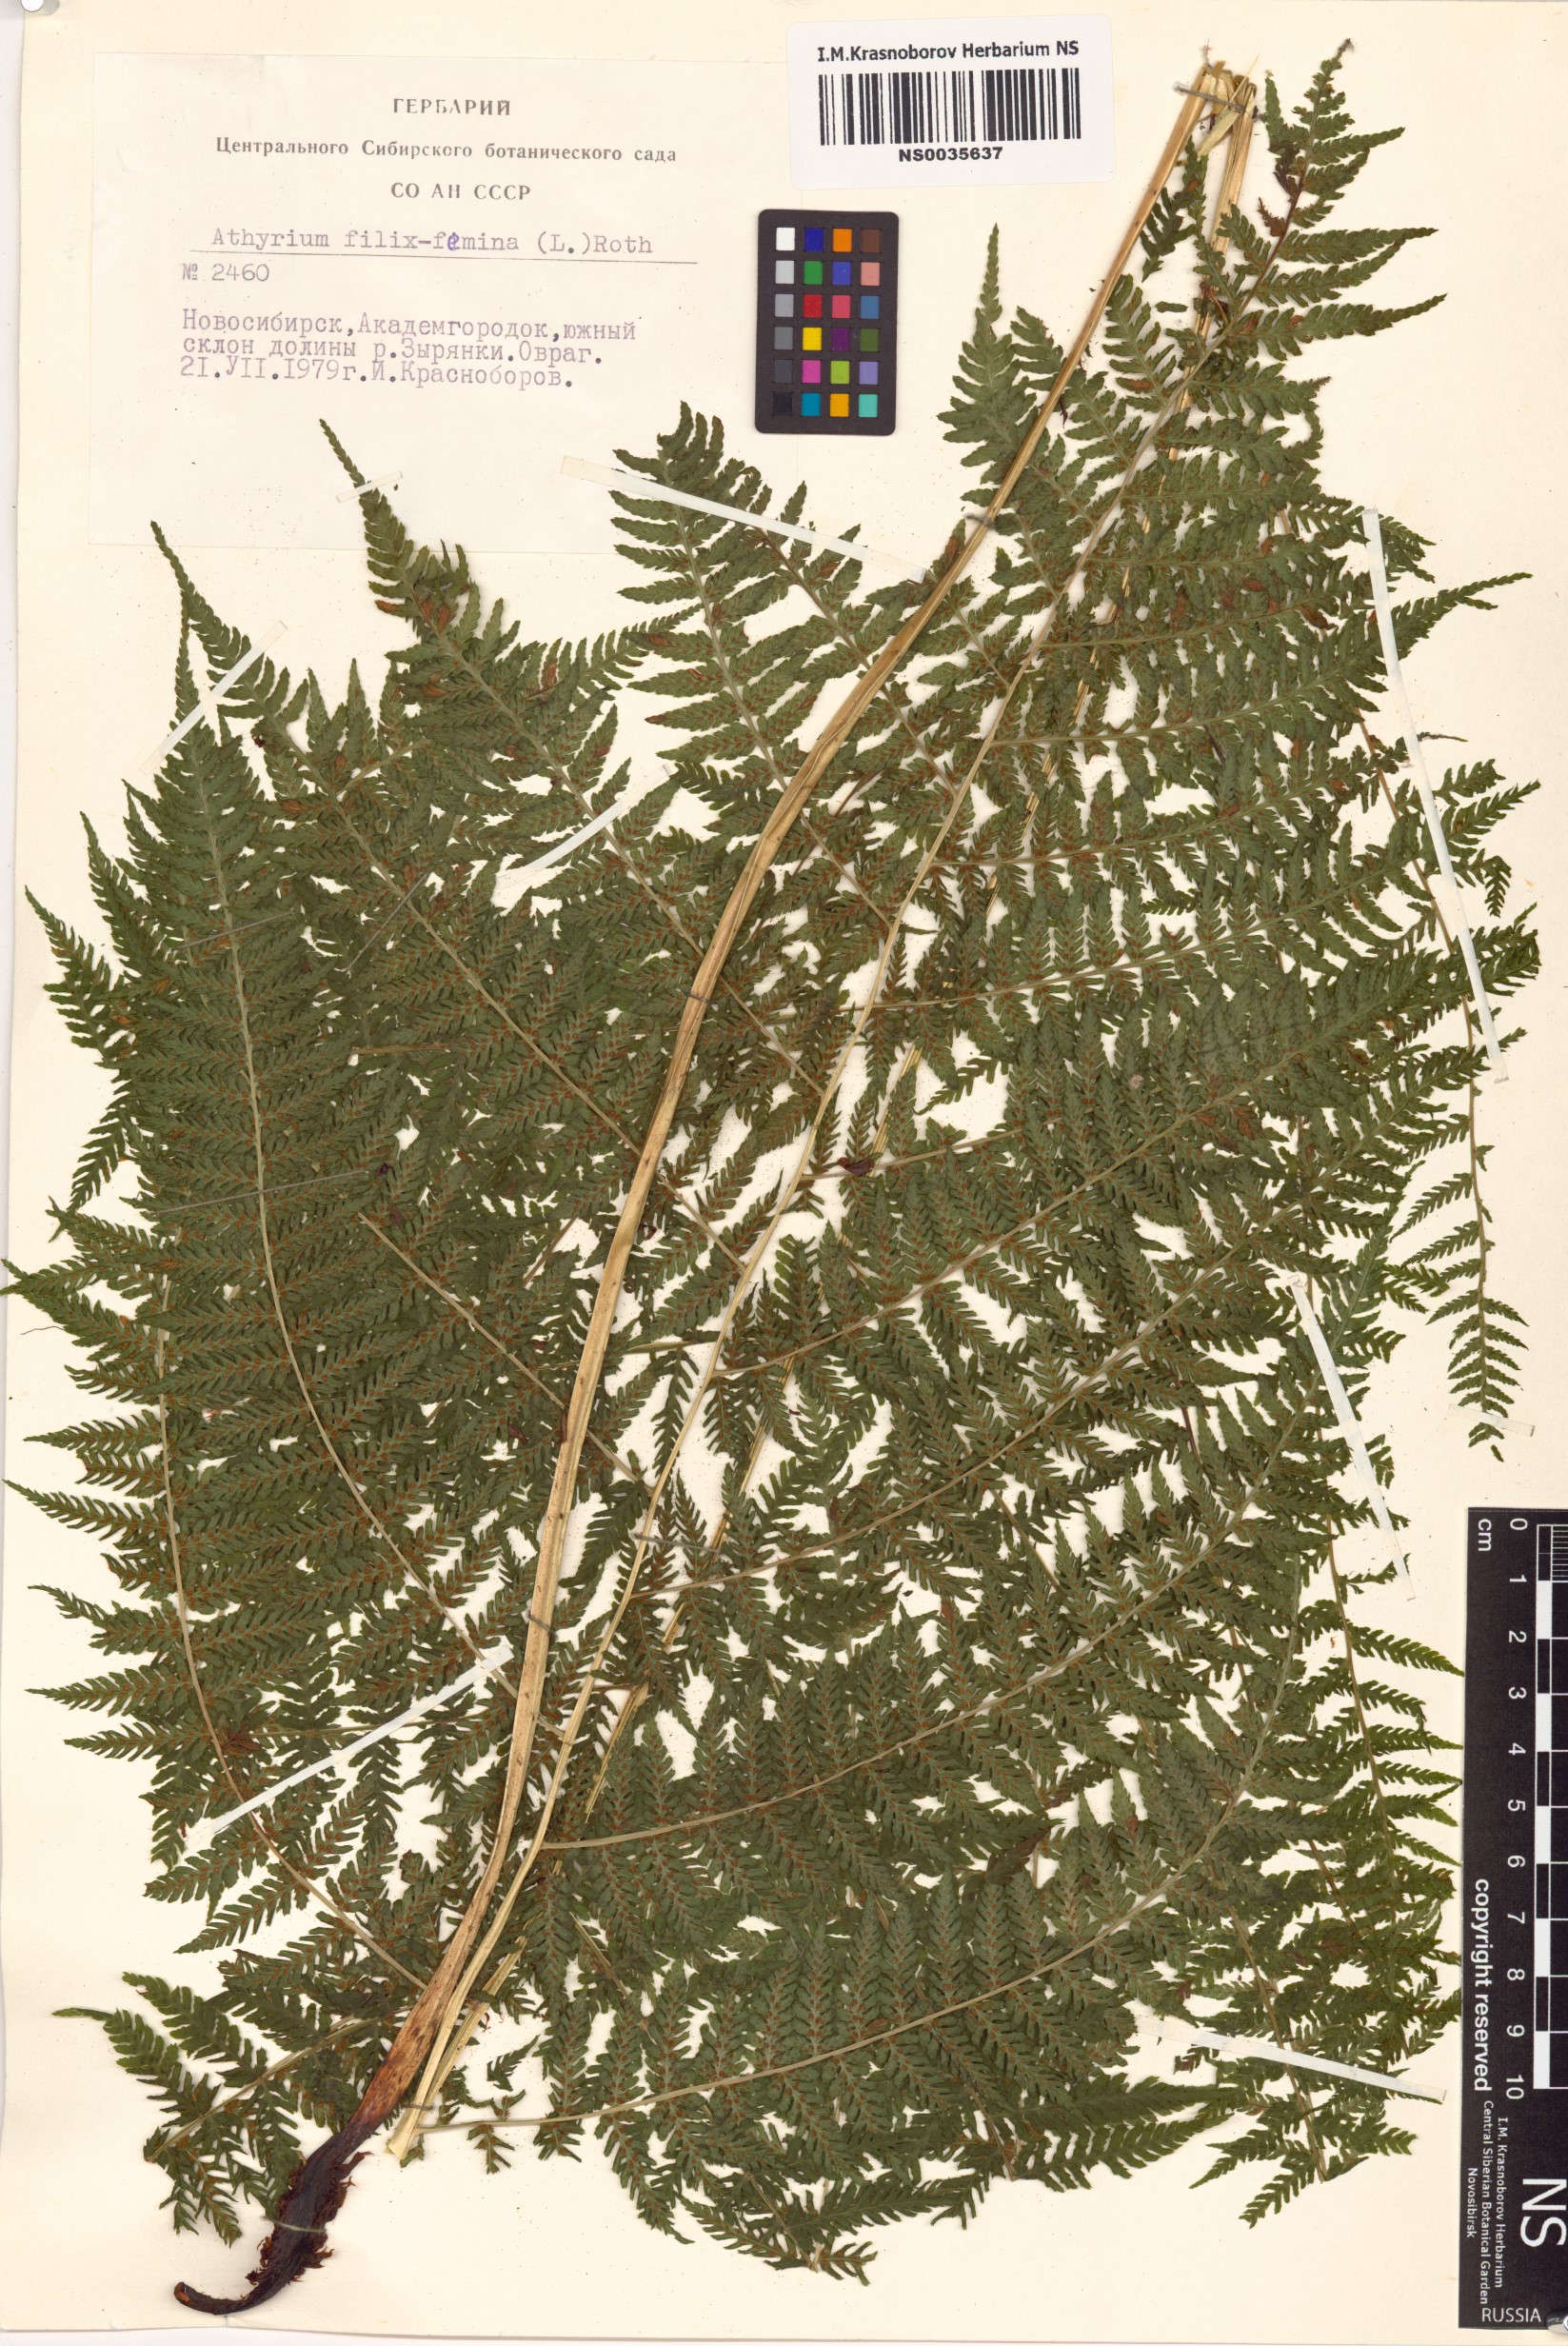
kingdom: Plantae
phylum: Tracheophyta
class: Polypodiopsida
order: Polypodiales
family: Athyriaceae
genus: Athyrium
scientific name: Athyrium filix-femina
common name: Lady fern
